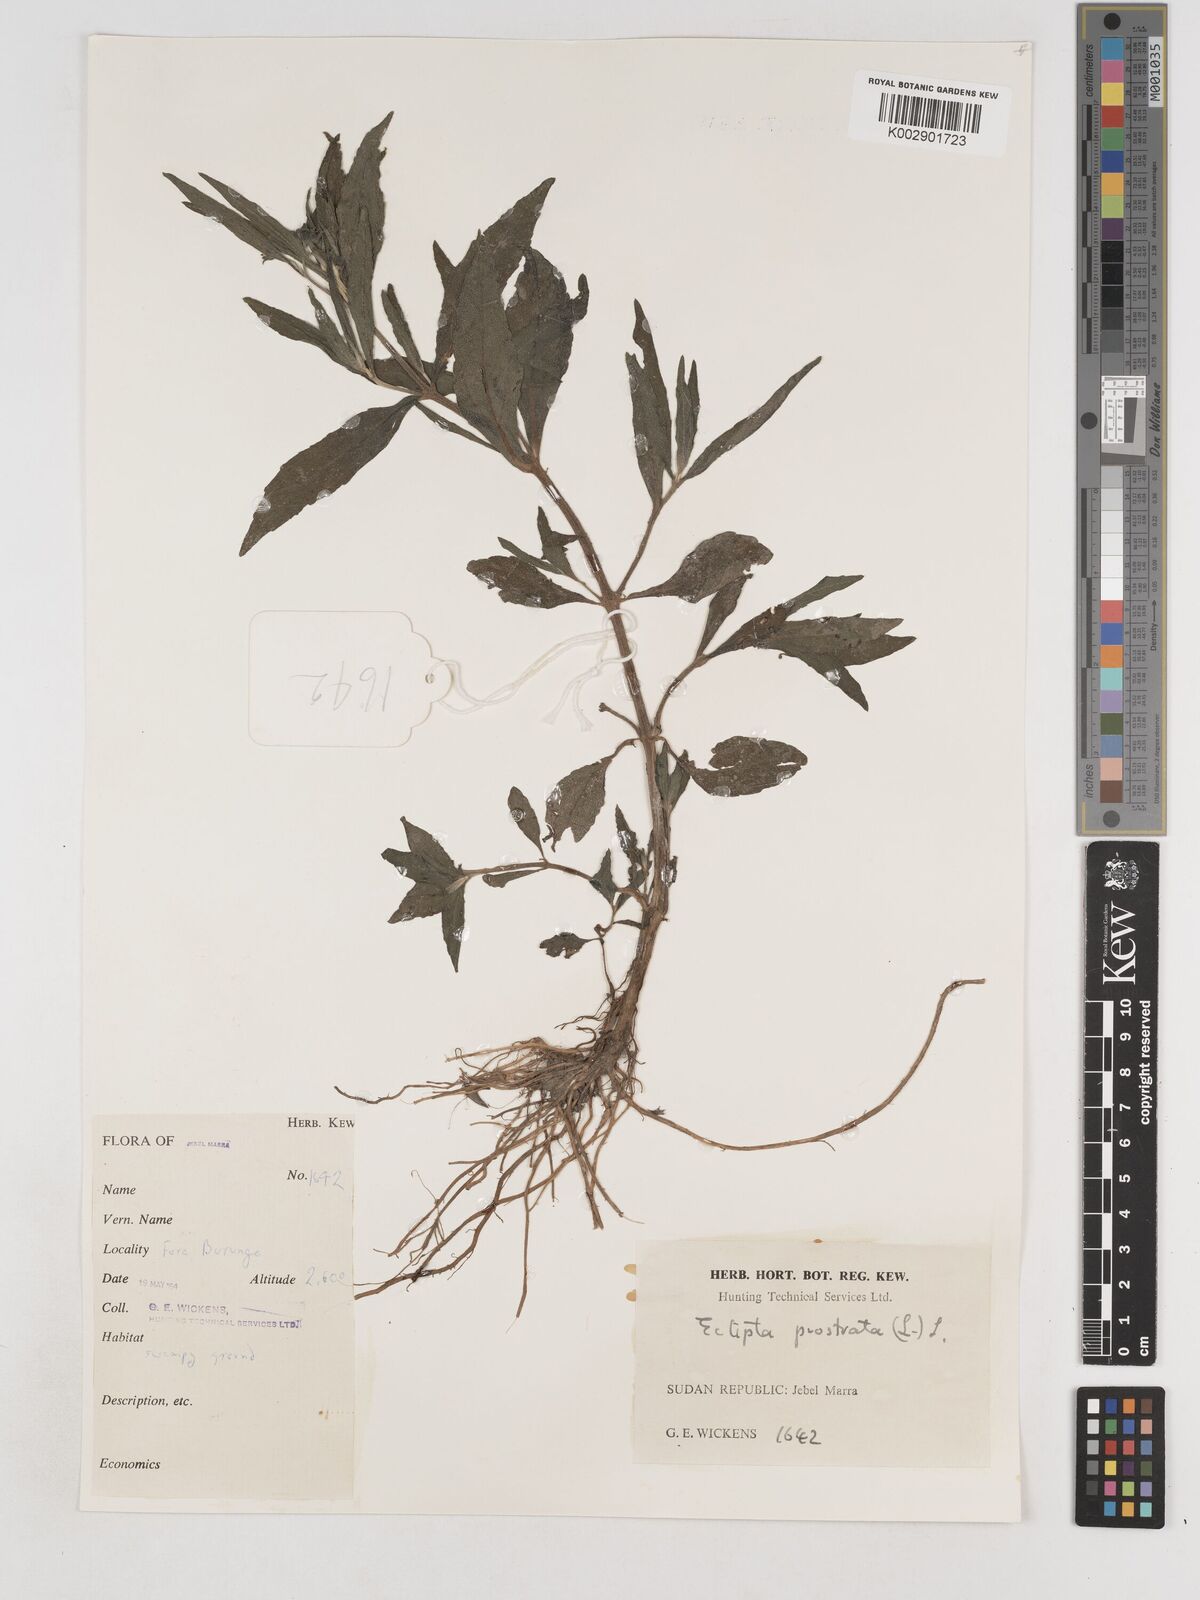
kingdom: Plantae
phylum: Tracheophyta
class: Magnoliopsida
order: Asterales
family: Asteraceae
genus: Eclipta
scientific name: Eclipta prostrata
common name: False daisy
